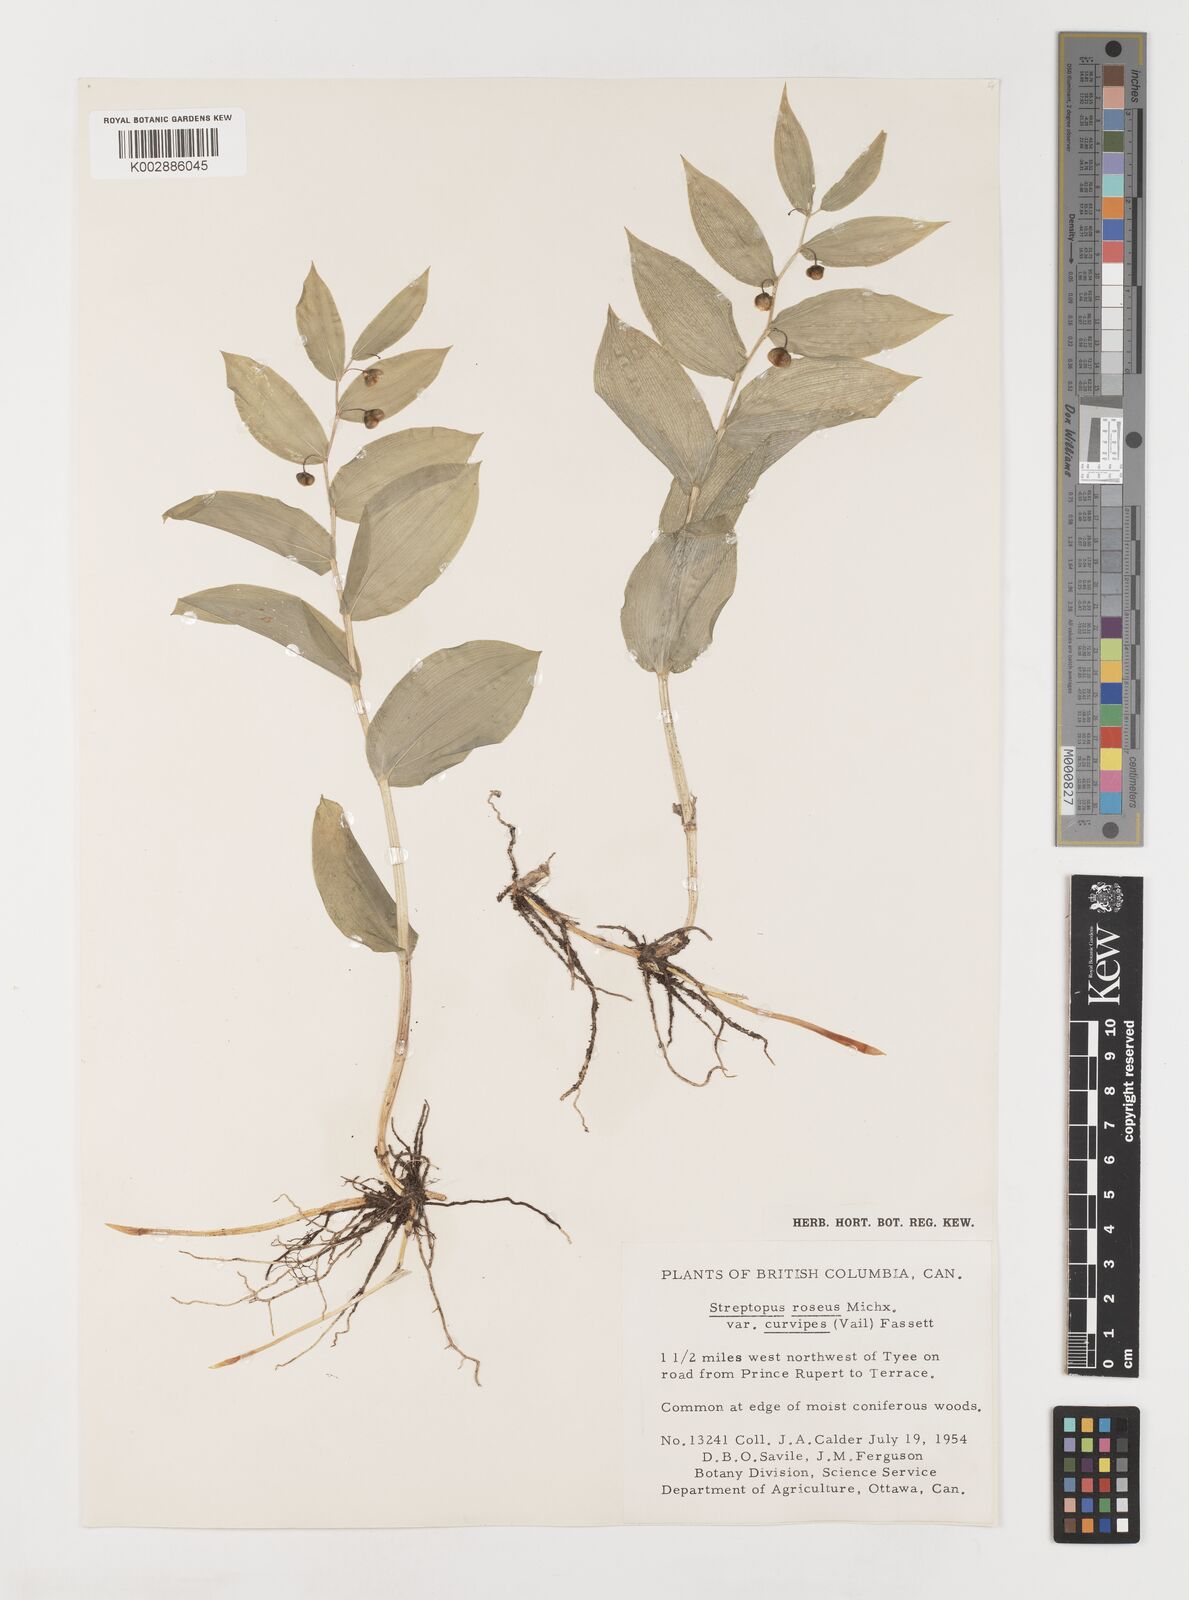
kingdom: Plantae
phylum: Tracheophyta
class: Liliopsida
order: Liliales
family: Liliaceae
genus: Streptopus
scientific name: Streptopus lanceolatus
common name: Rose mandarin
